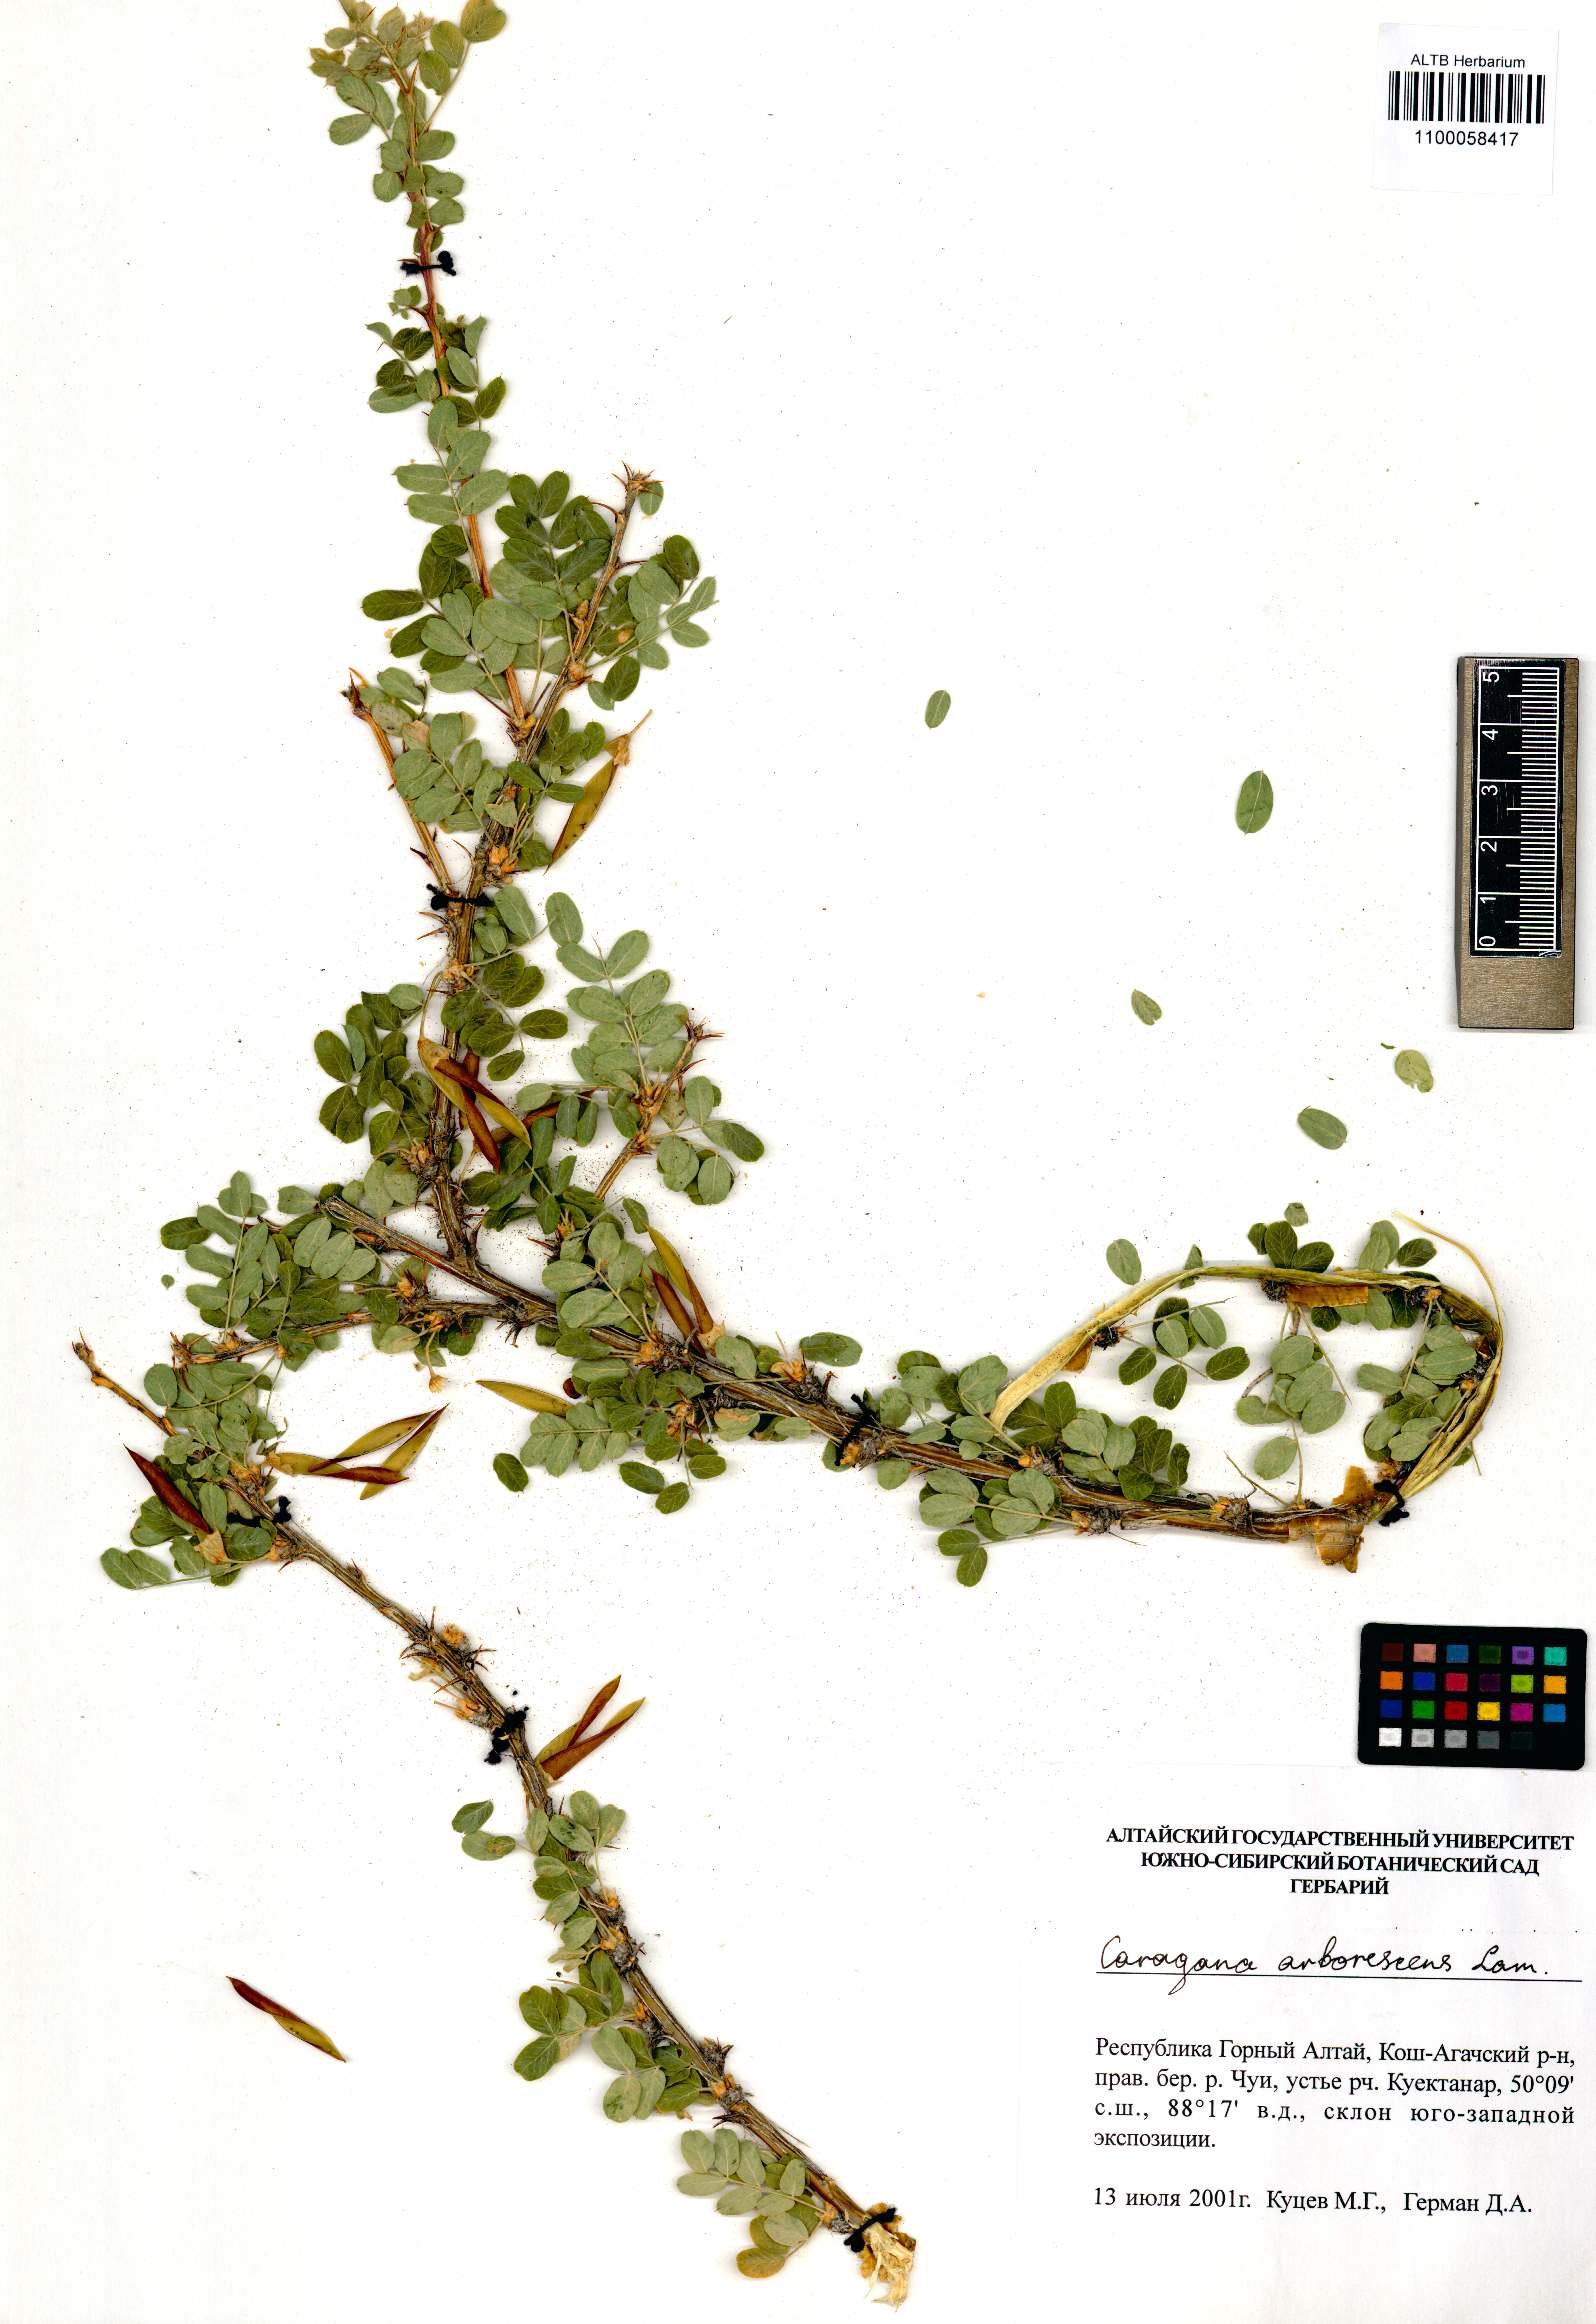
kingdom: Plantae
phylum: Tracheophyta
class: Magnoliopsida
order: Fabales
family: Fabaceae
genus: Caragana
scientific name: Caragana arborescens
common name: Siberian peashrub
